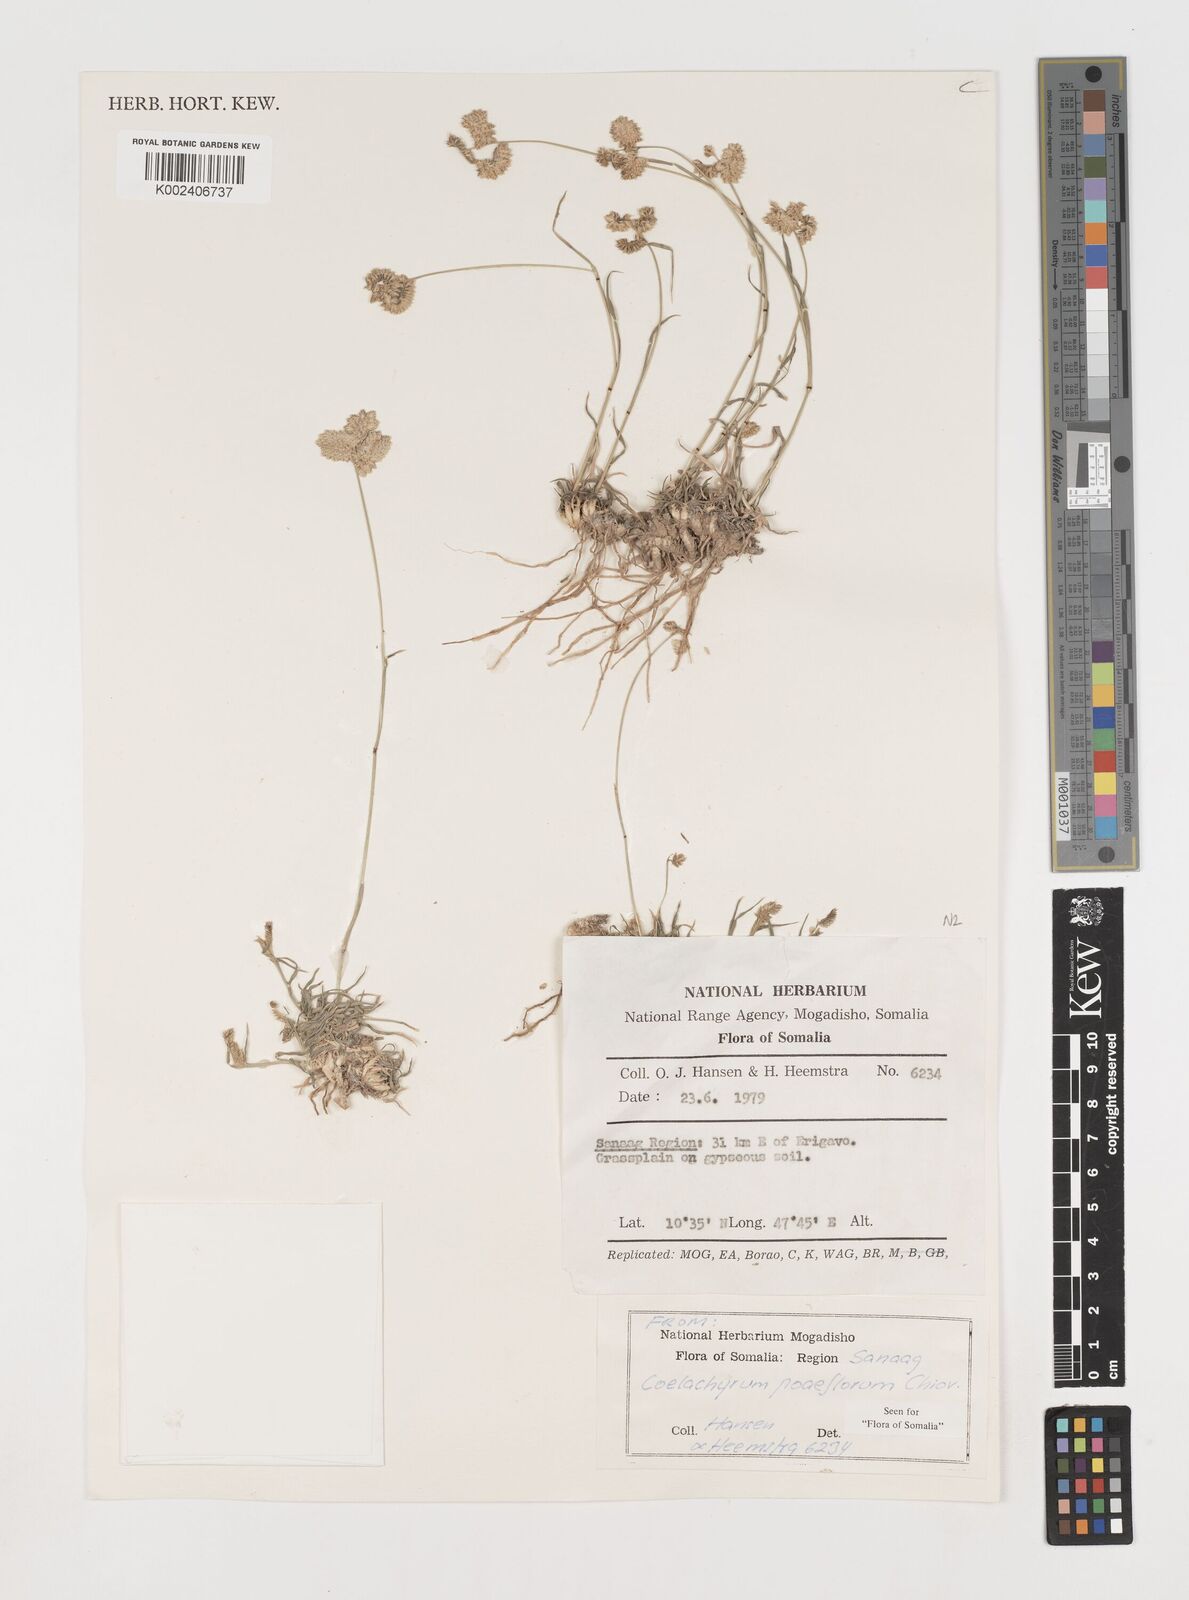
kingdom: Plantae
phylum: Tracheophyta
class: Liliopsida
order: Poales
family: Poaceae
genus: Coelachyrum
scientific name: Coelachyrum poiflorum
